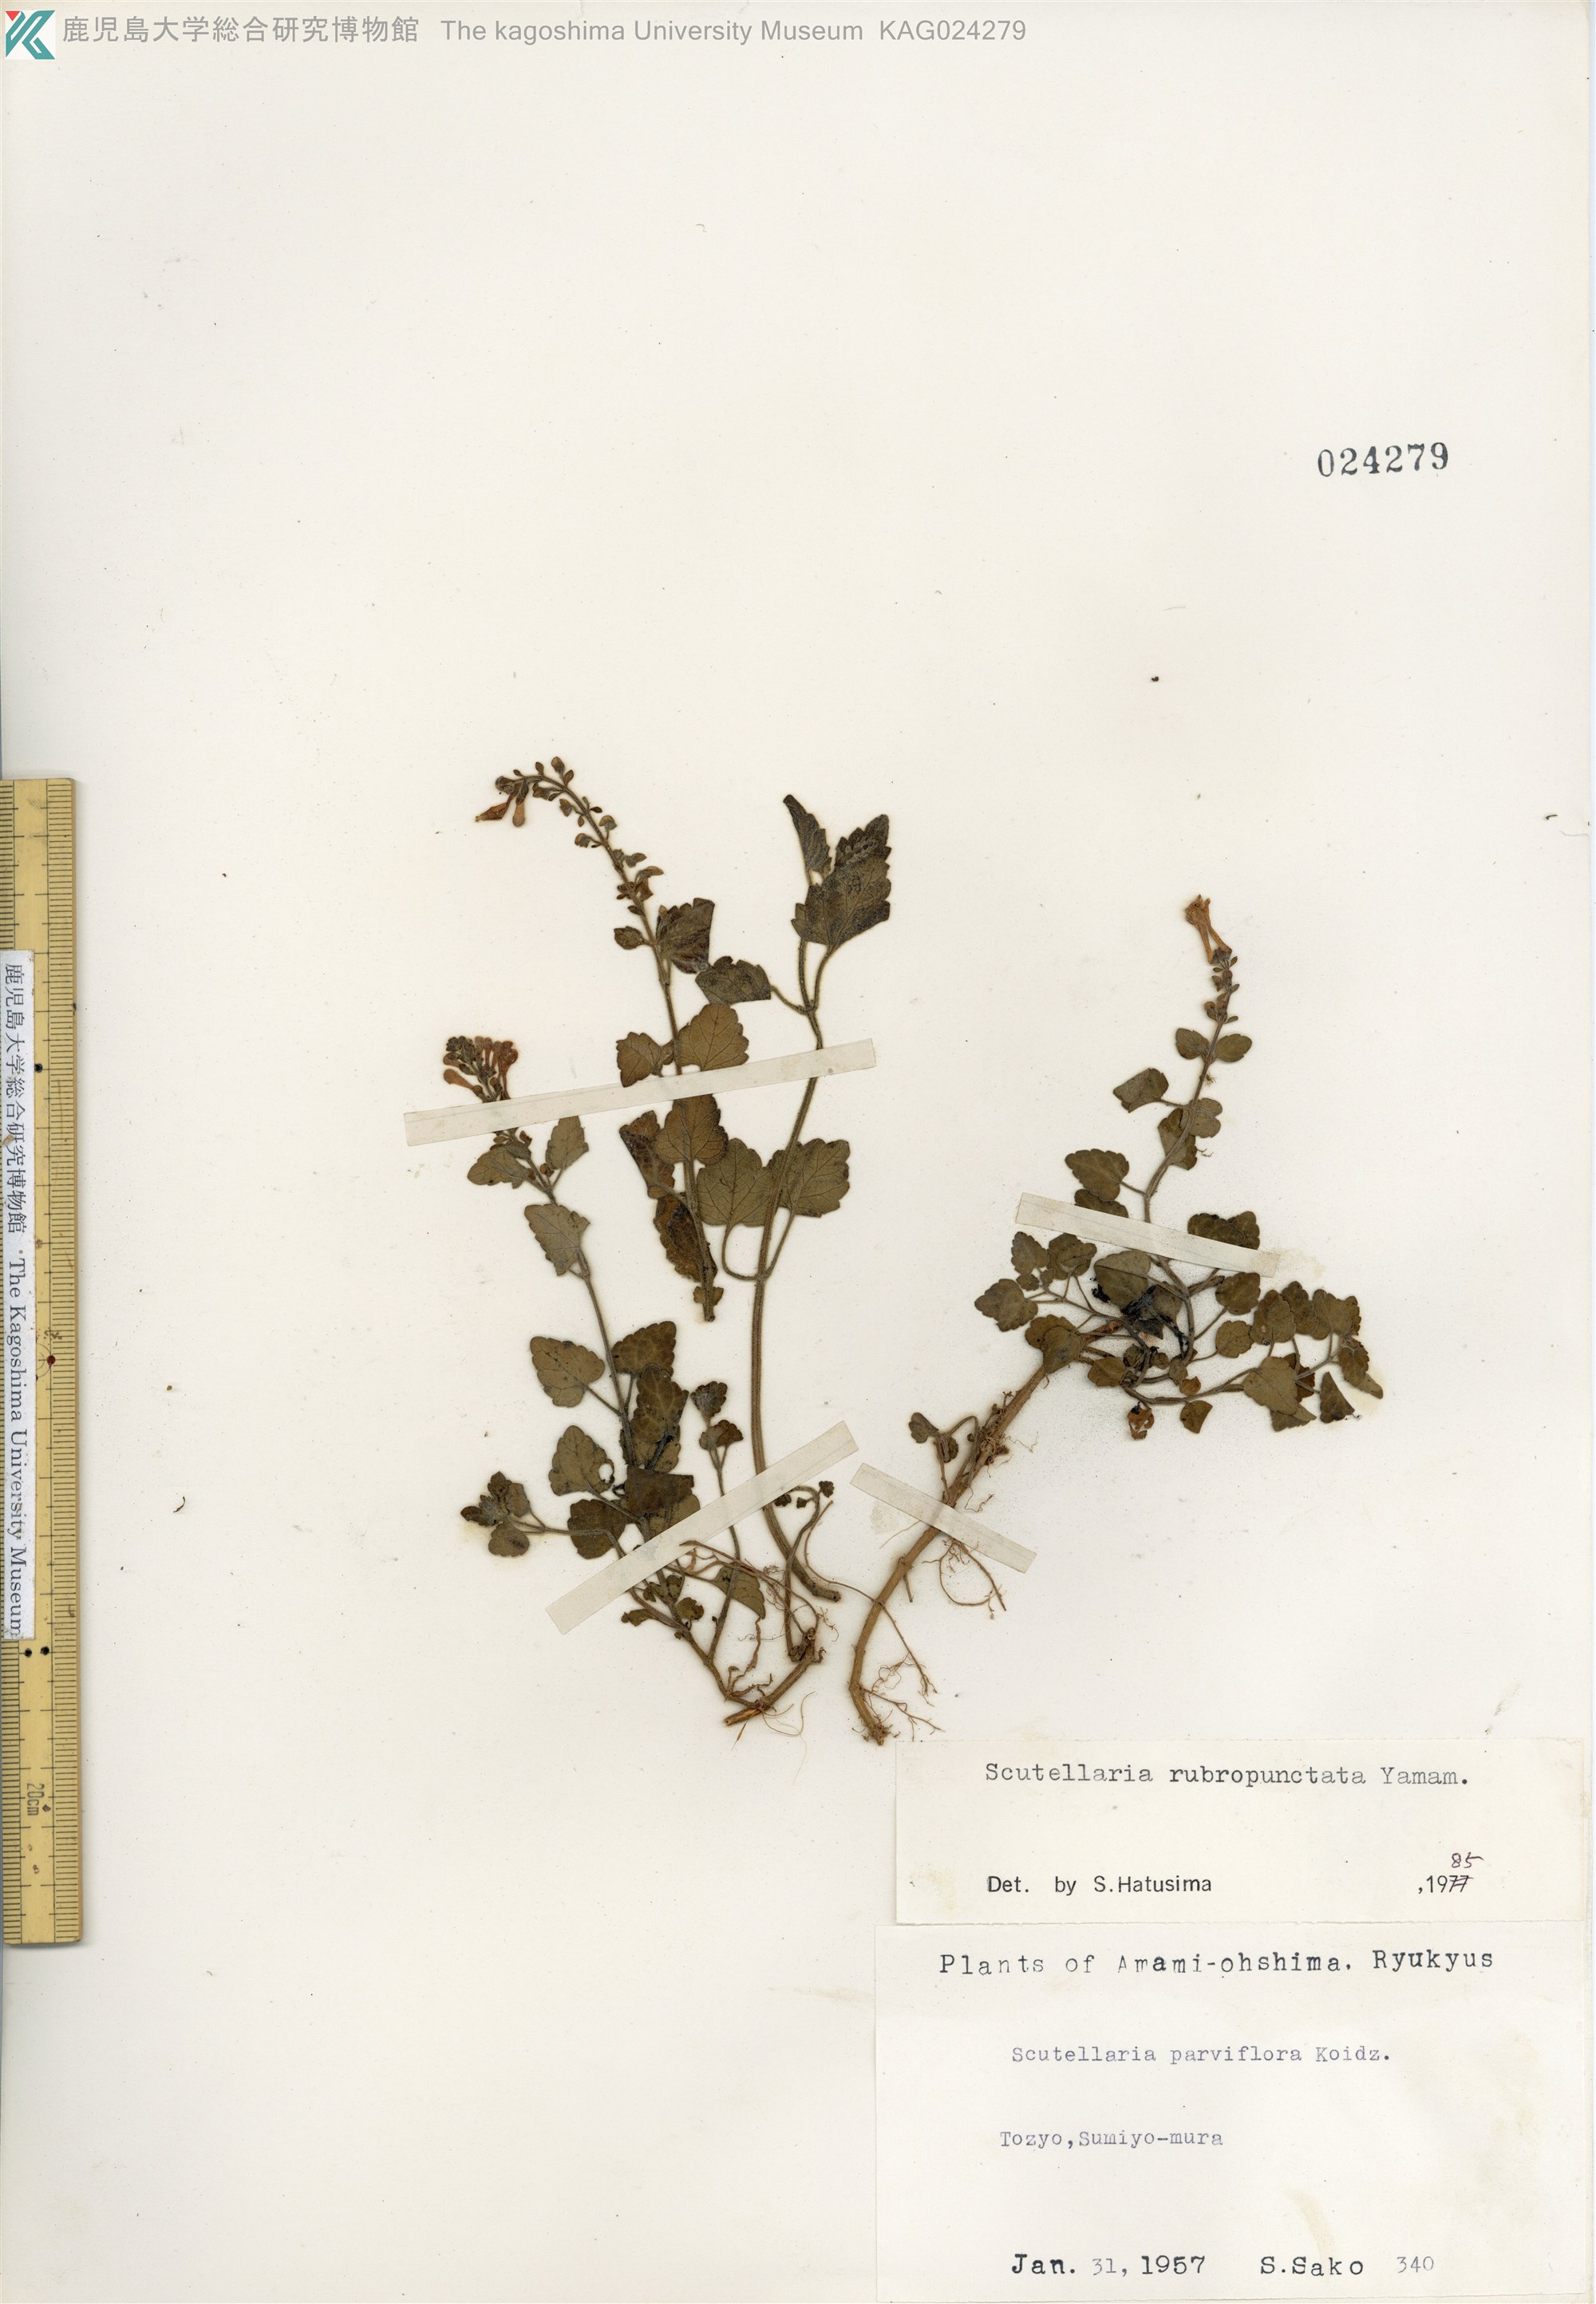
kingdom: Plantae
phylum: Tracheophyta
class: Magnoliopsida
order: Lamiales
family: Lamiaceae
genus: Scutellaria
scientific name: Scutellaria rubropunctata
